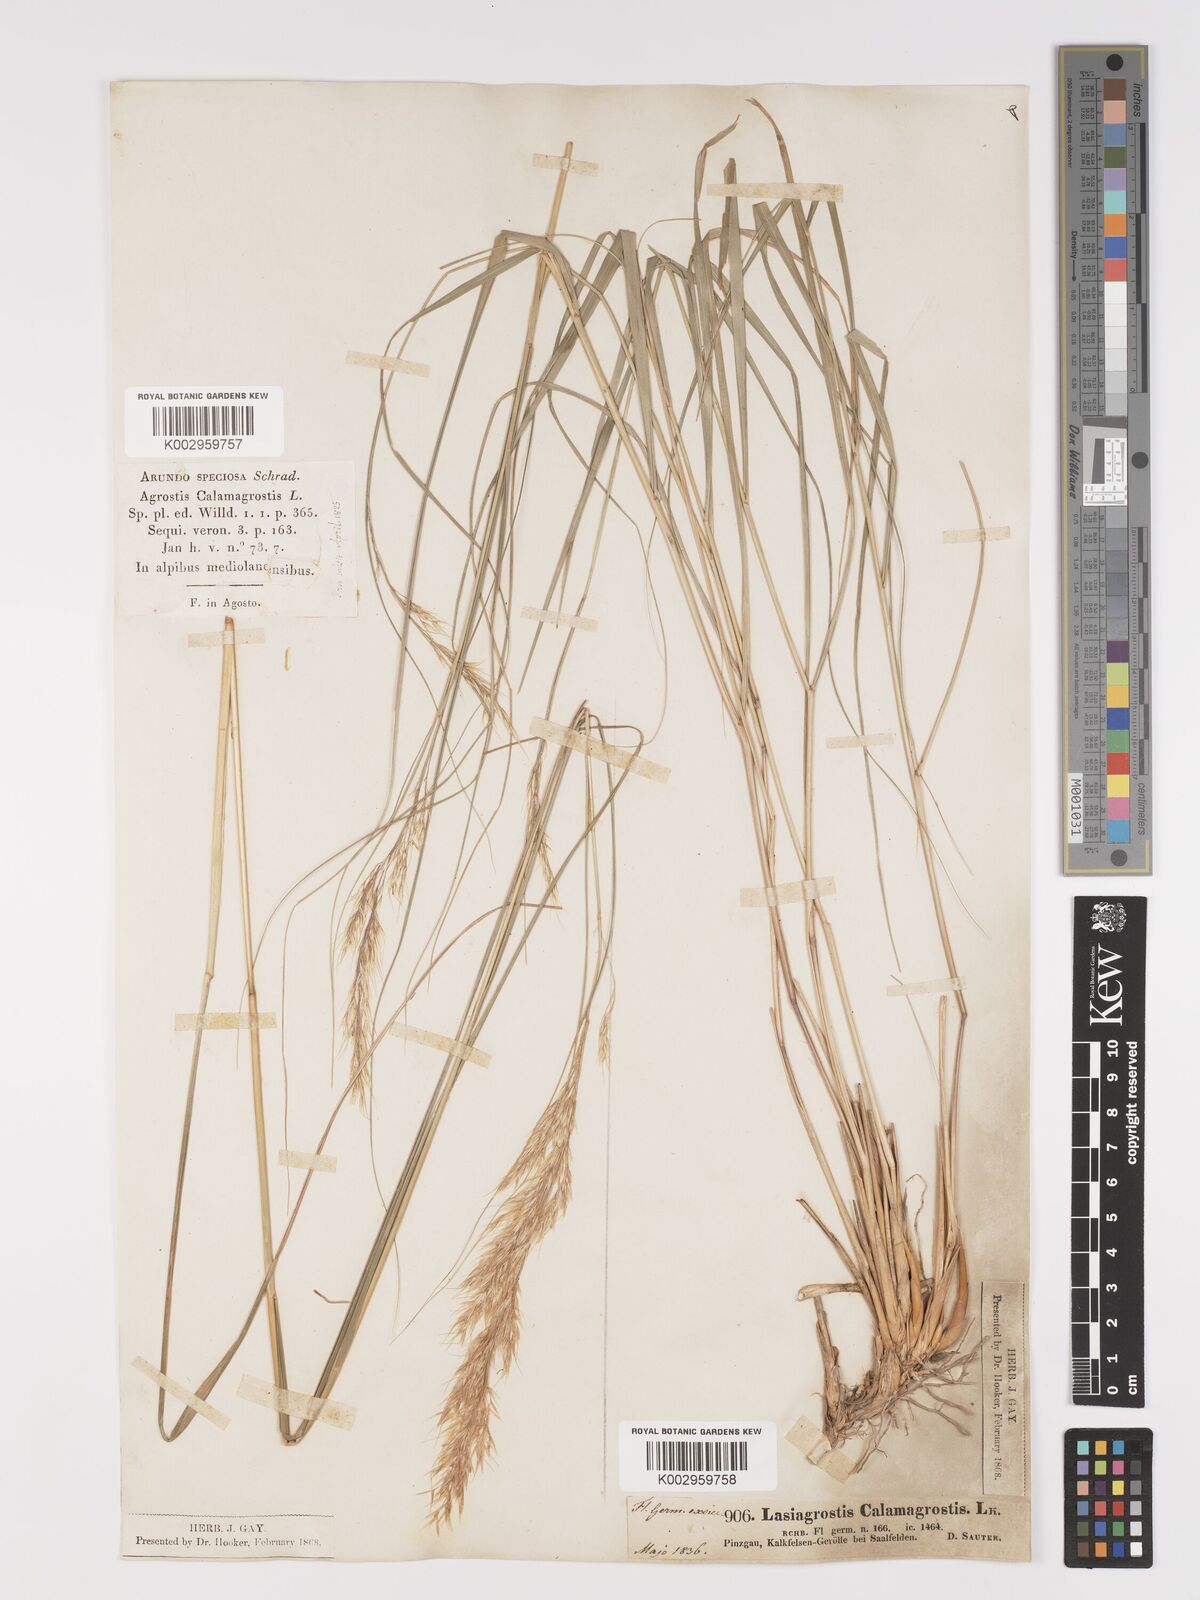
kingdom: Plantae
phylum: Tracheophyta
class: Liliopsida
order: Poales
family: Poaceae
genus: Achnatherum
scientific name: Achnatherum calamagrostis
